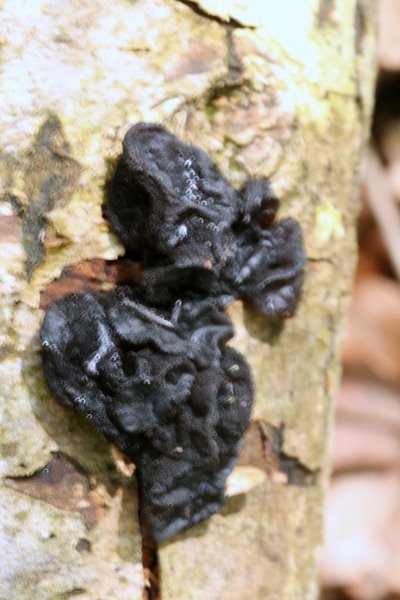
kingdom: Fungi
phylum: Basidiomycota
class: Agaricomycetes
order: Auriculariales
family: Auriculariaceae
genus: Exidia
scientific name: Exidia glandulosa
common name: ege-bævretop
